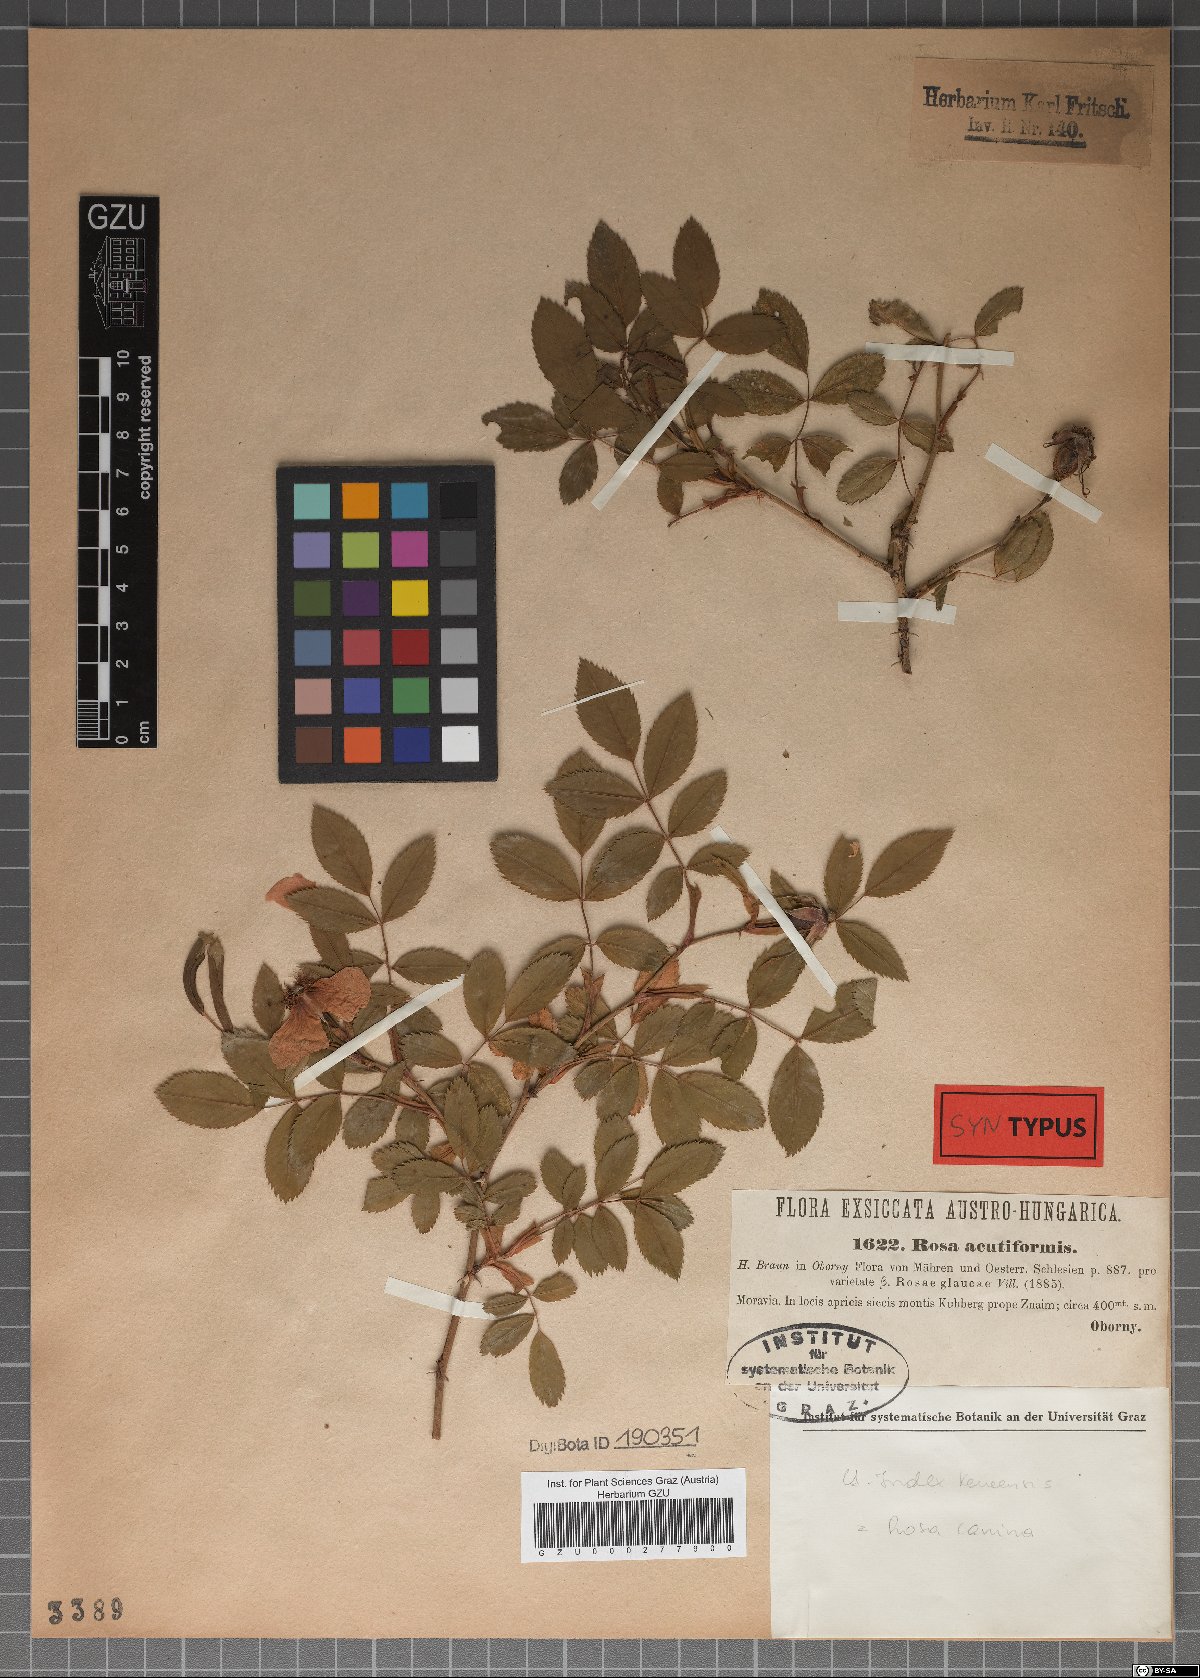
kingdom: Plantae
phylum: Tracheophyta
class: Magnoliopsida
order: Rosales
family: Rosaceae
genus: Rosa
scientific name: Rosa glauca
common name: Redleaf rose
